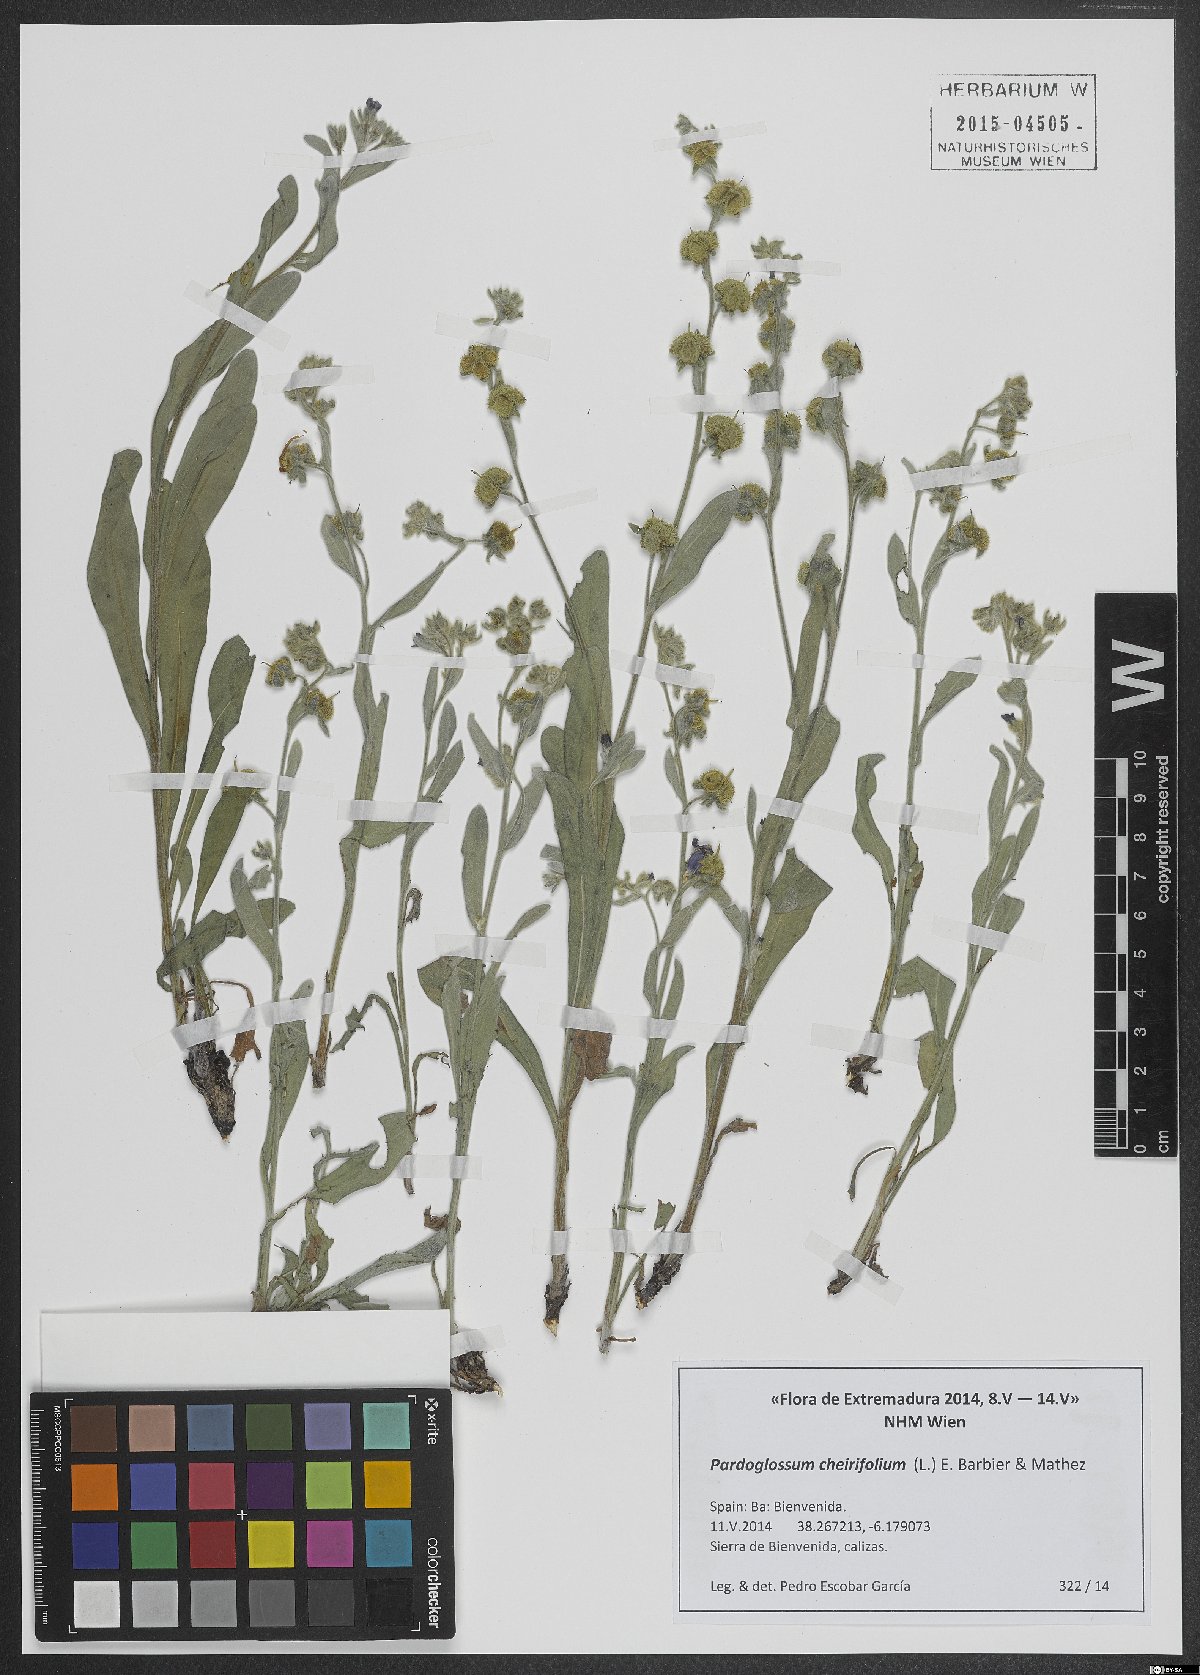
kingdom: Plantae
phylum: Tracheophyta
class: Magnoliopsida
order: Boraginales
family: Boraginaceae
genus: Pardoglossum
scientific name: Pardoglossum cheirifolium
